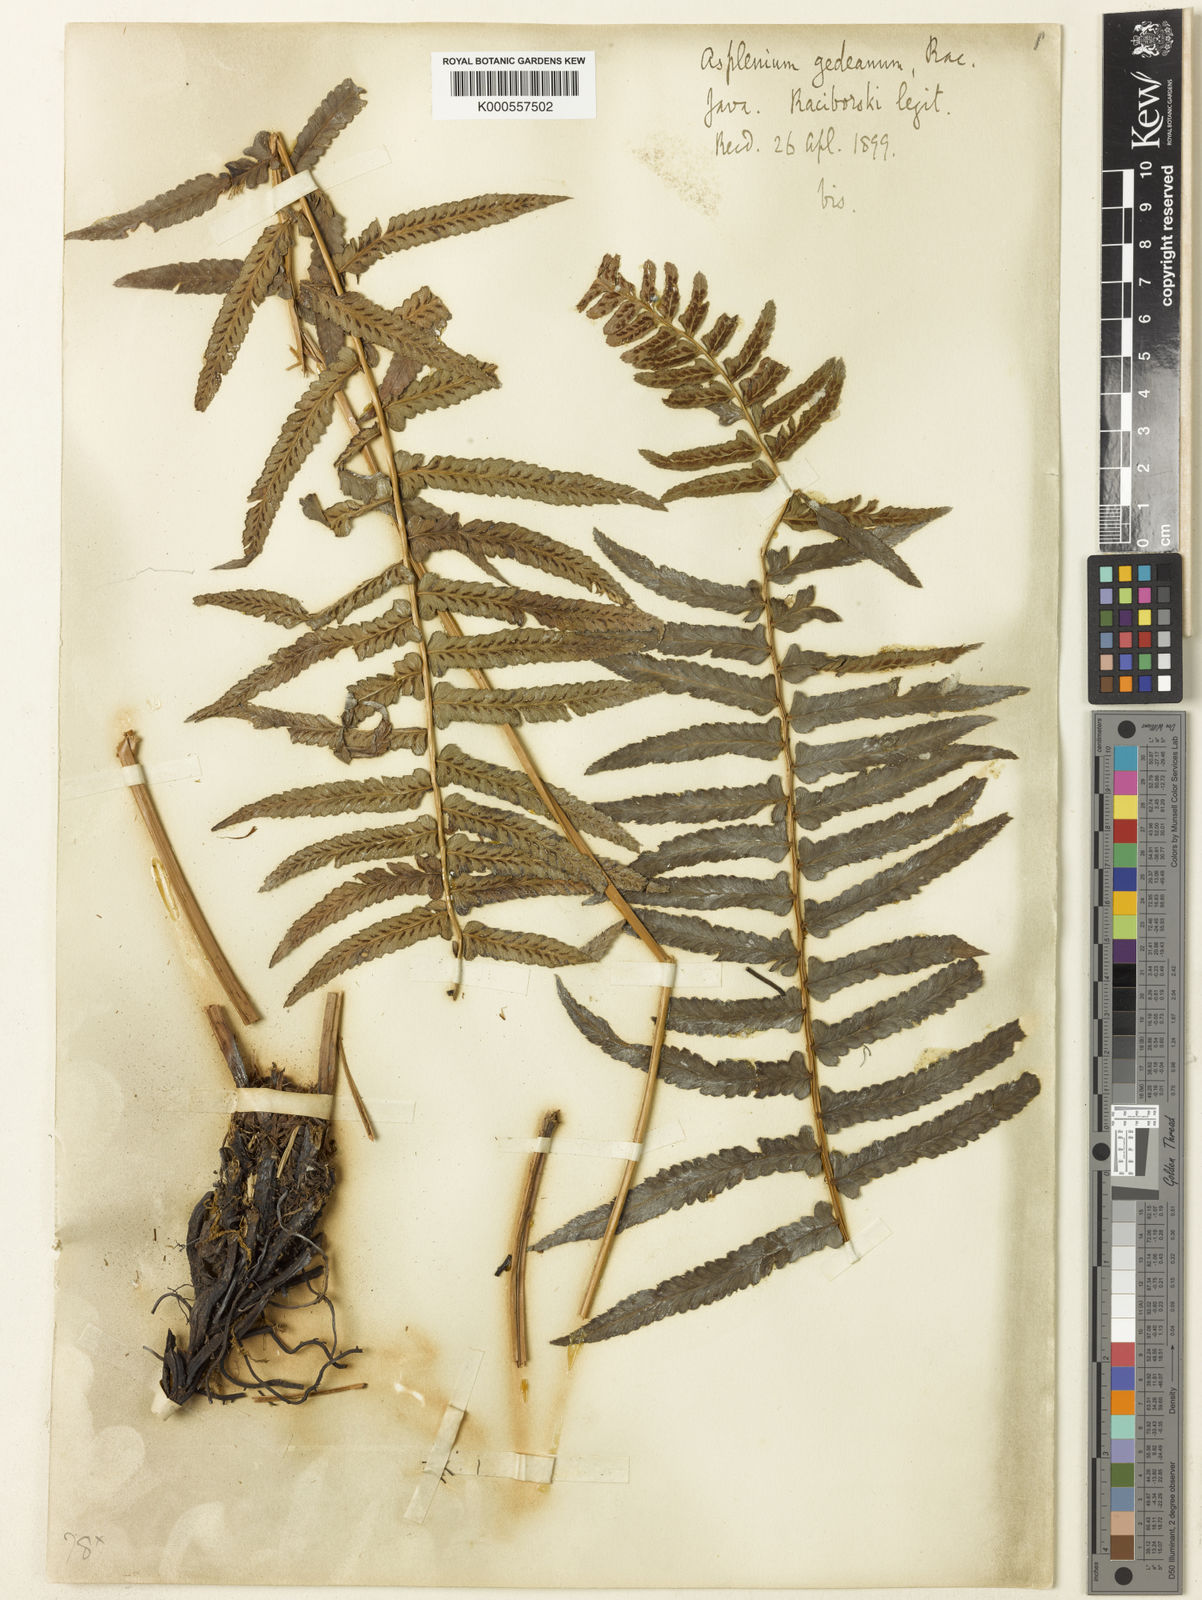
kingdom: Plantae
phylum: Tracheophyta
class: Polypodiopsida
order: Polypodiales
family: Athyriaceae
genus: Athyrium
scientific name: Athyrium atratum
